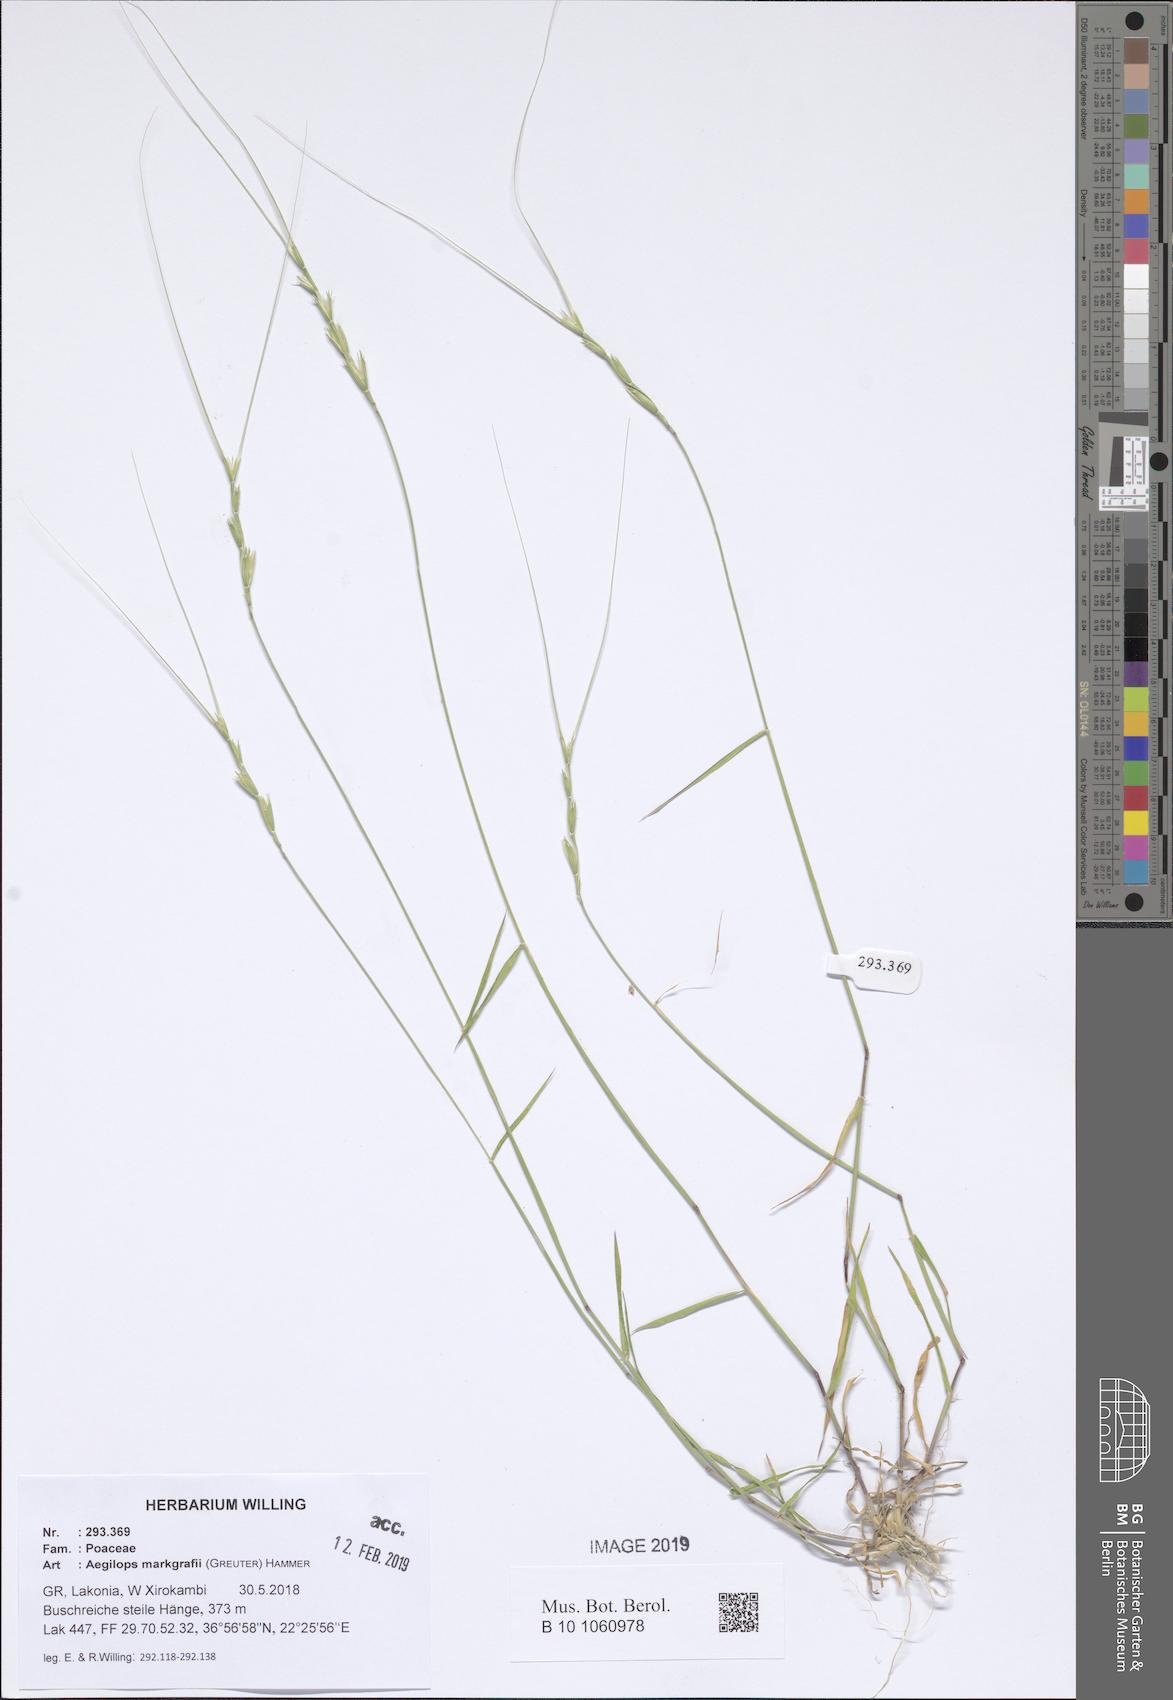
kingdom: Plantae
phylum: Tracheophyta
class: Liliopsida
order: Poales
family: Poaceae
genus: Aegilops
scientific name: Aegilops caudata
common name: Cretan hard-grass
